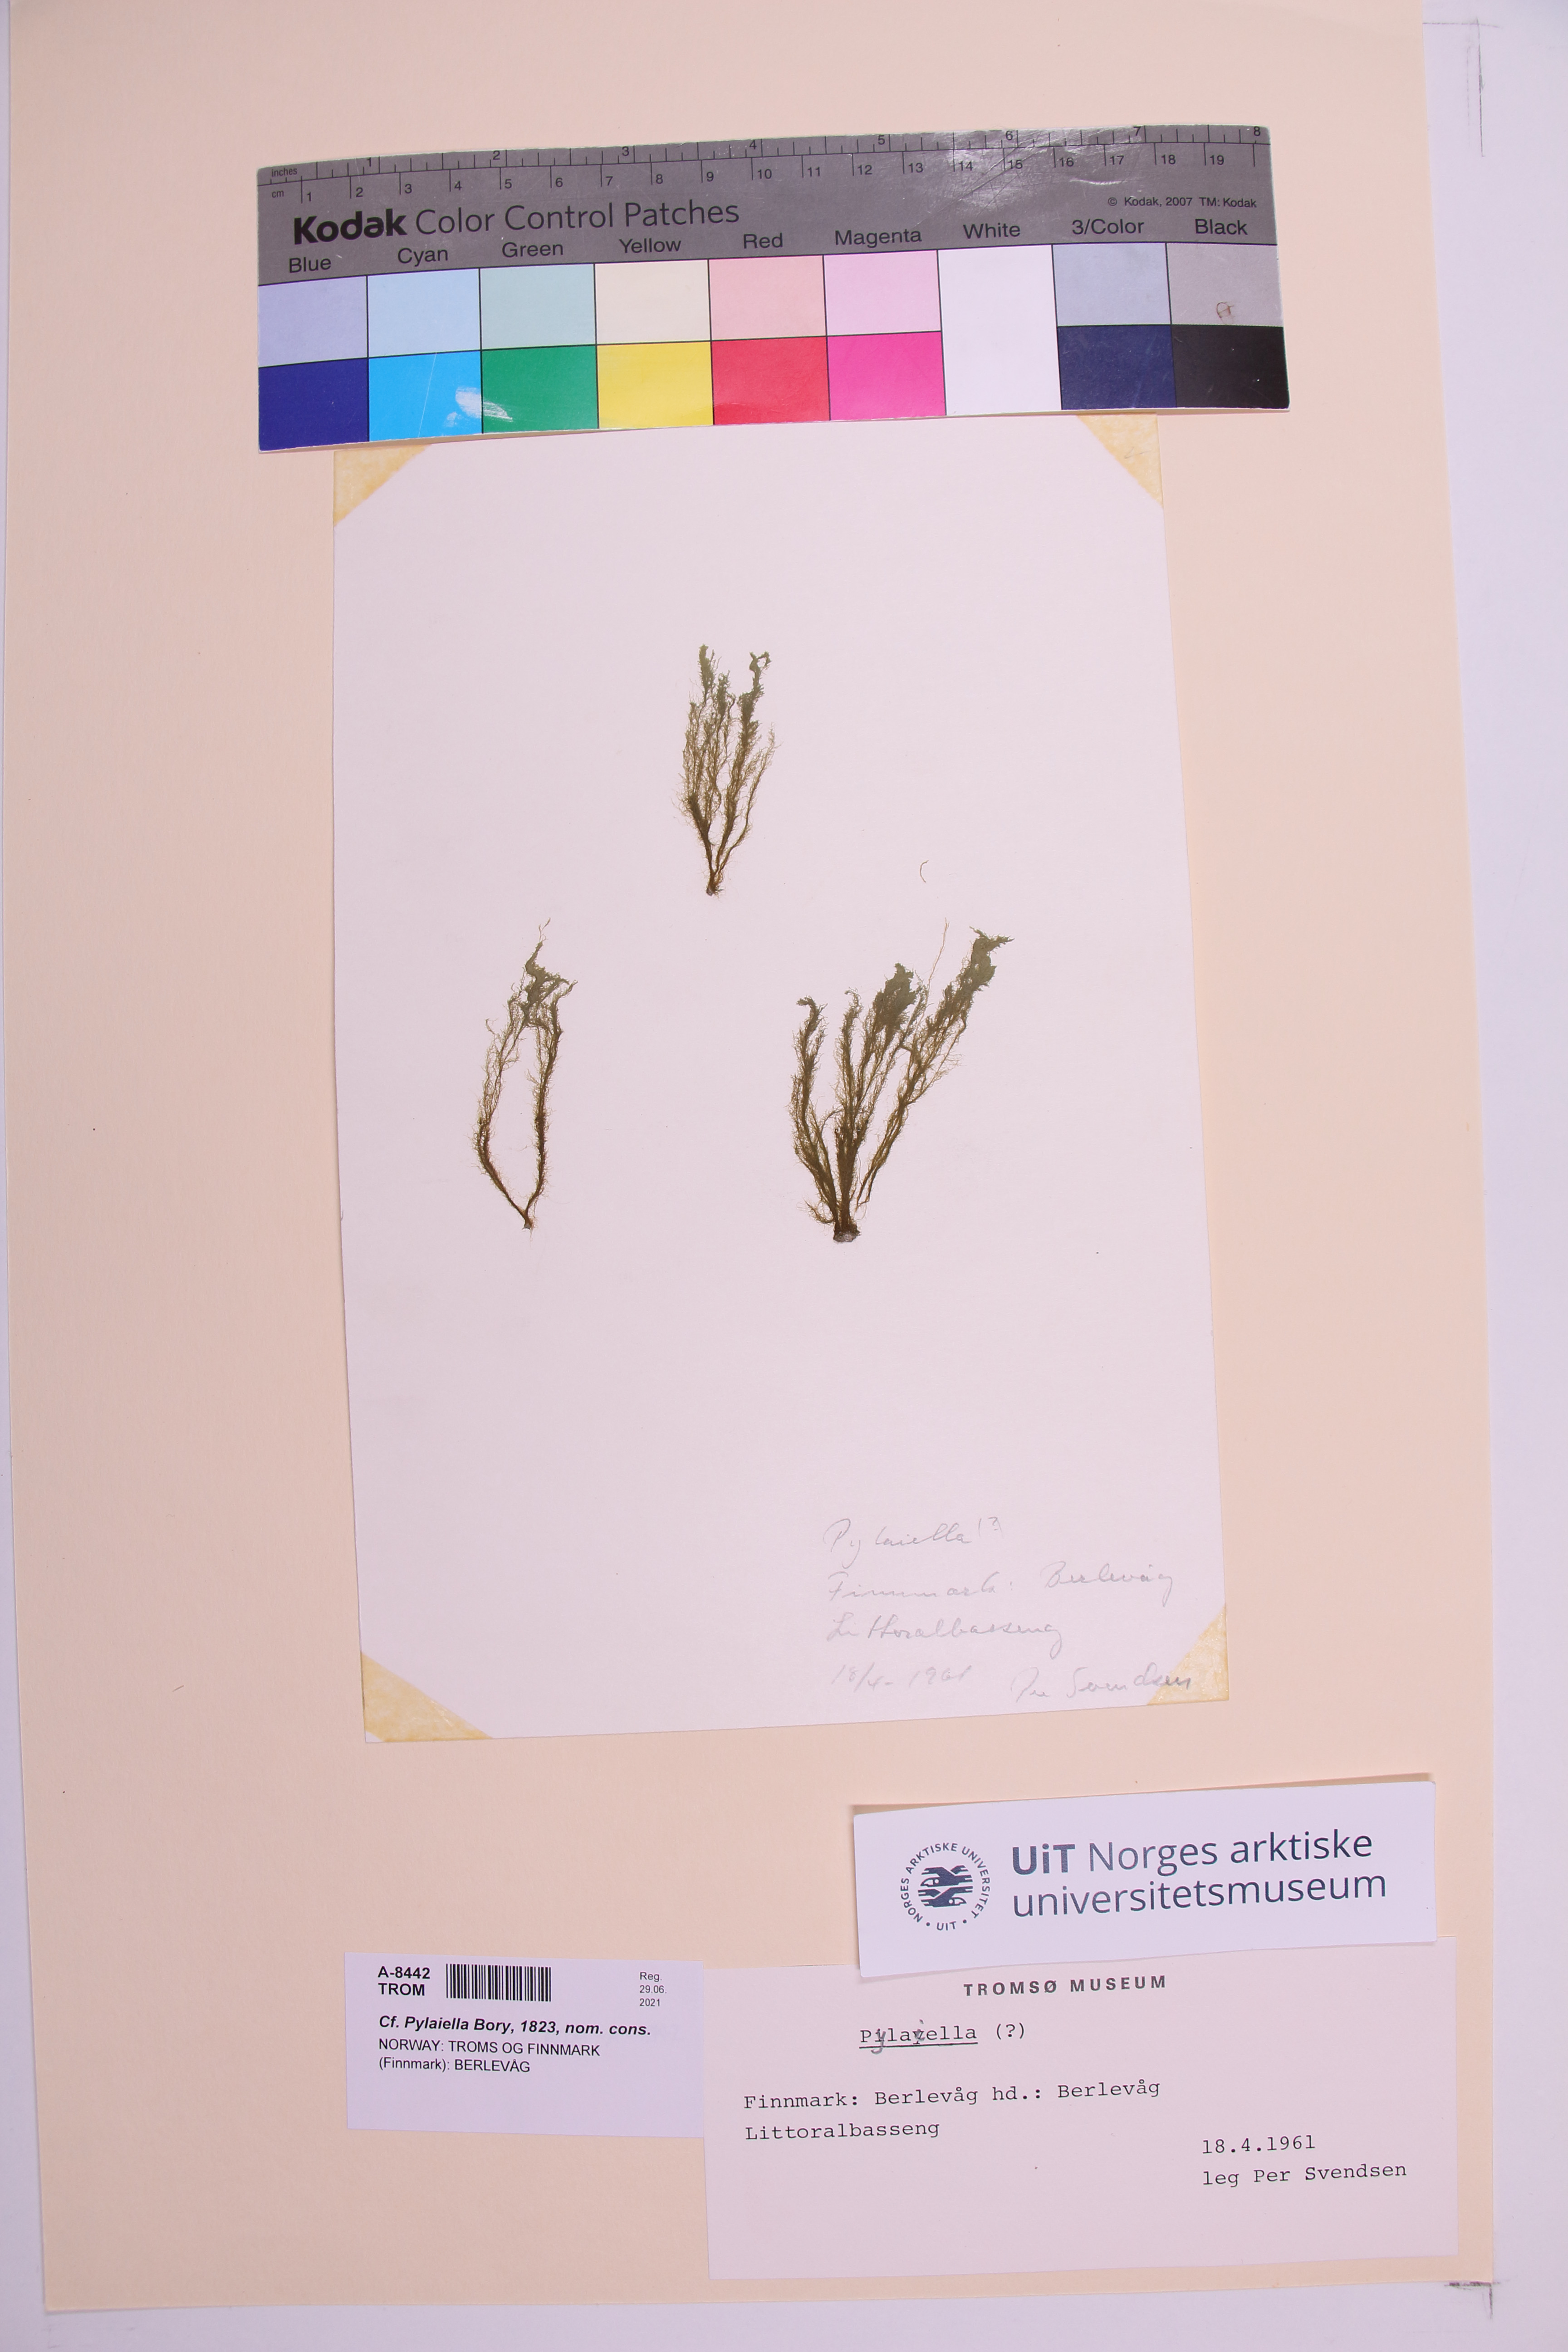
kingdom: Chromista
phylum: Ochrophyta
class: Phaeophyceae
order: Ectocarpales
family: Acinetosporaceae
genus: Pylaiella
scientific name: Pylaiella
